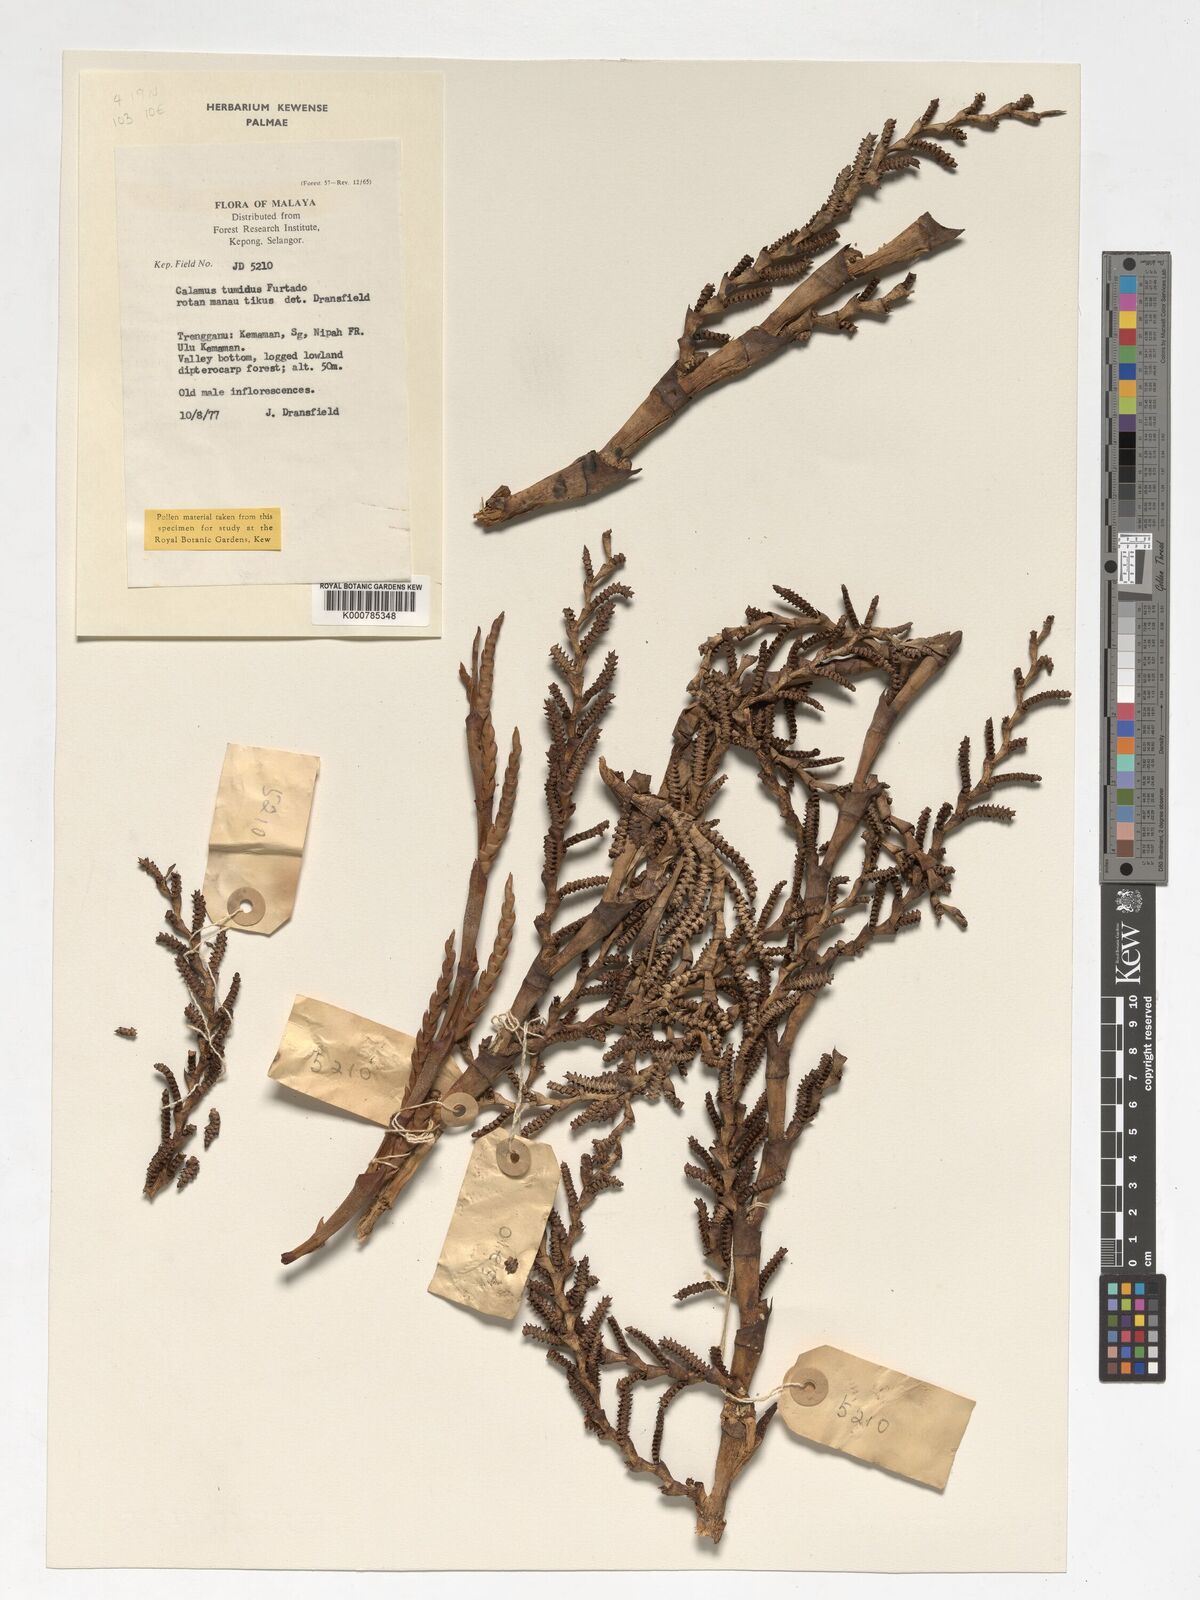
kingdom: Plantae
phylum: Tracheophyta
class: Liliopsida
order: Arecales
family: Arecaceae
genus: Calamus
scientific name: Calamus tumidus
